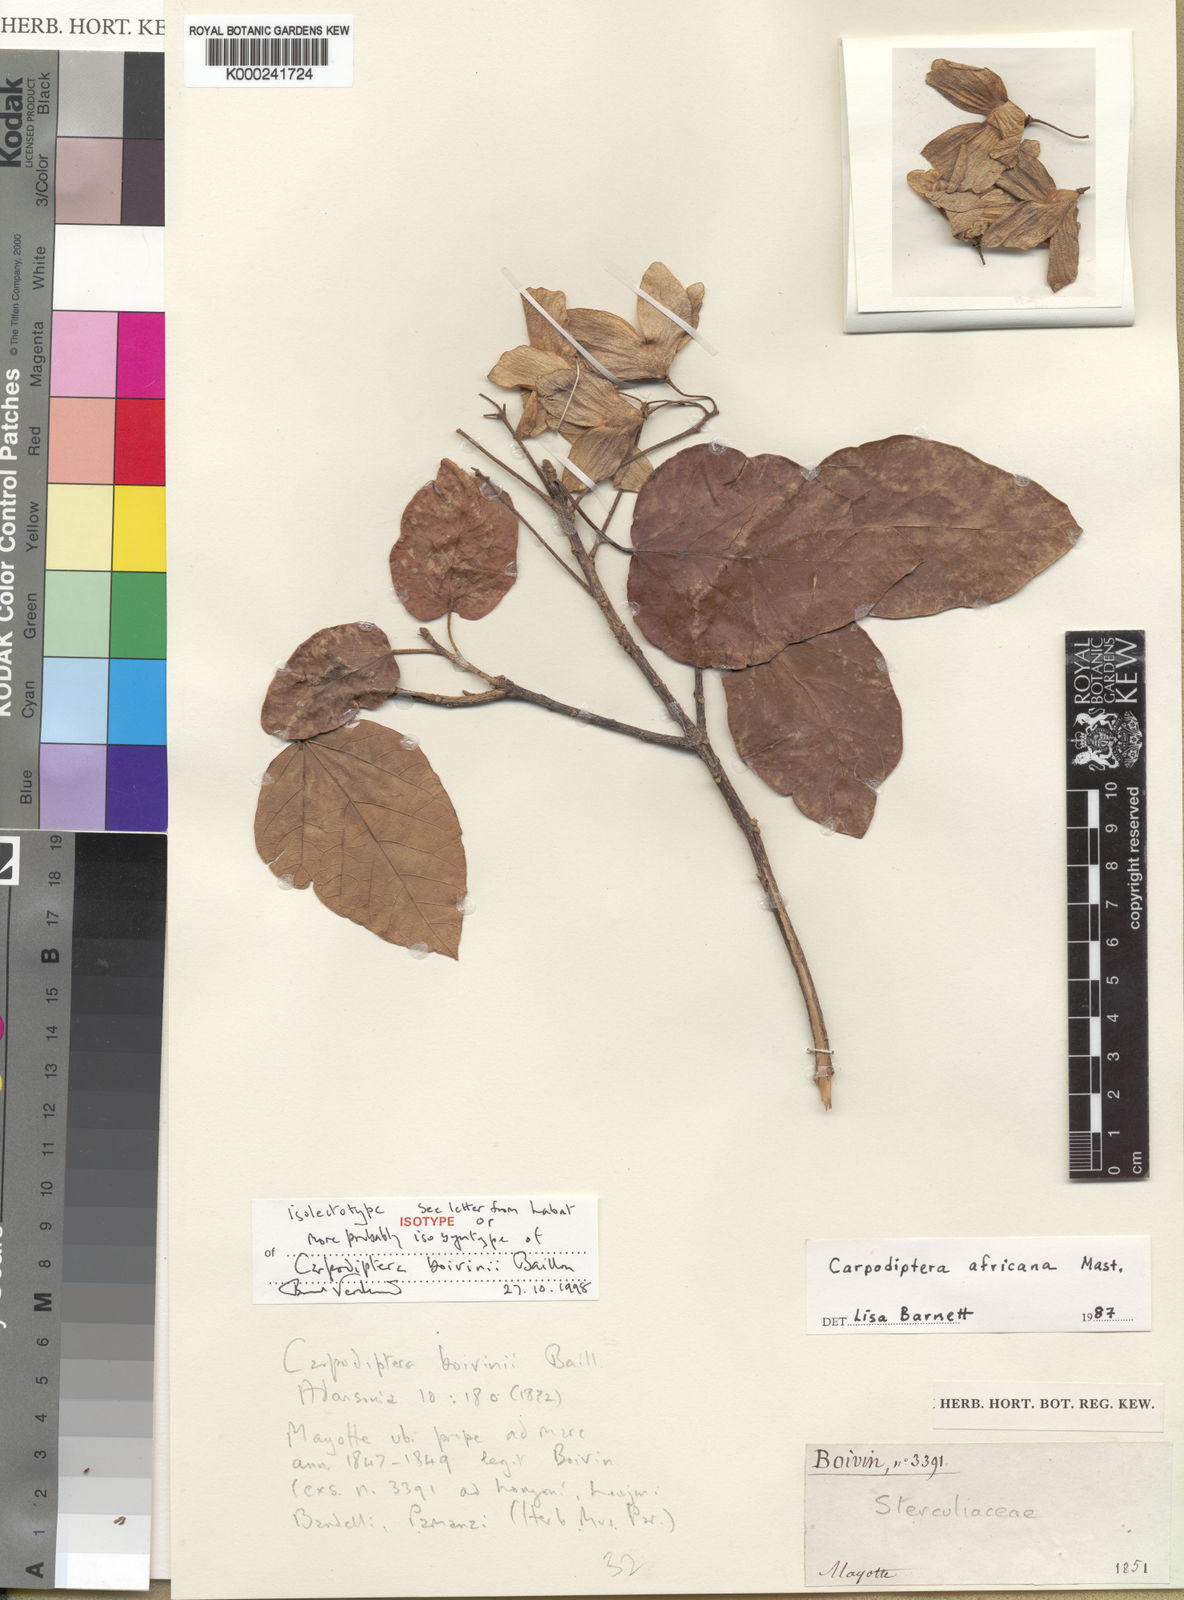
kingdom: Plantae
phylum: Tracheophyta
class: Magnoliopsida
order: Malvales
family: Malvaceae
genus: Berrya
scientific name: Berrya africana
